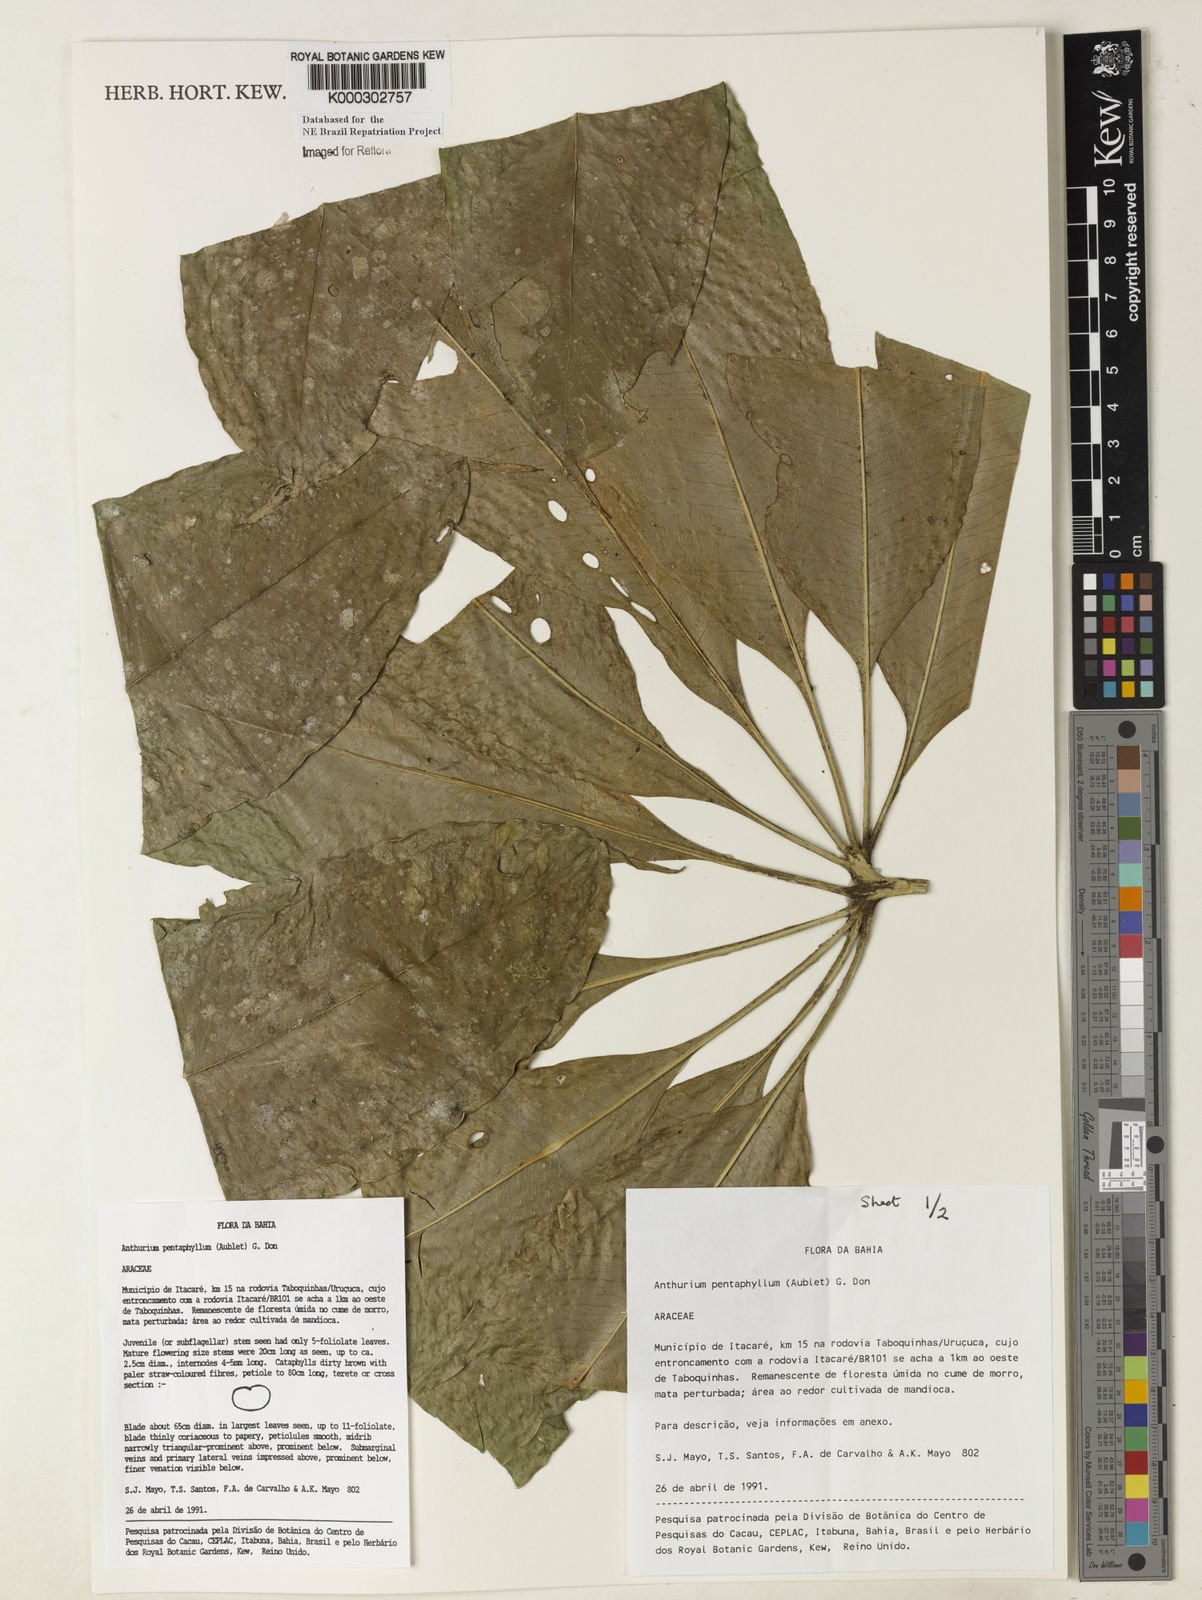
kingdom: Plantae
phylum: Tracheophyta
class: Liliopsida
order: Alismatales
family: Araceae
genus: Anthurium
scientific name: Anthurium pentaphyllum
